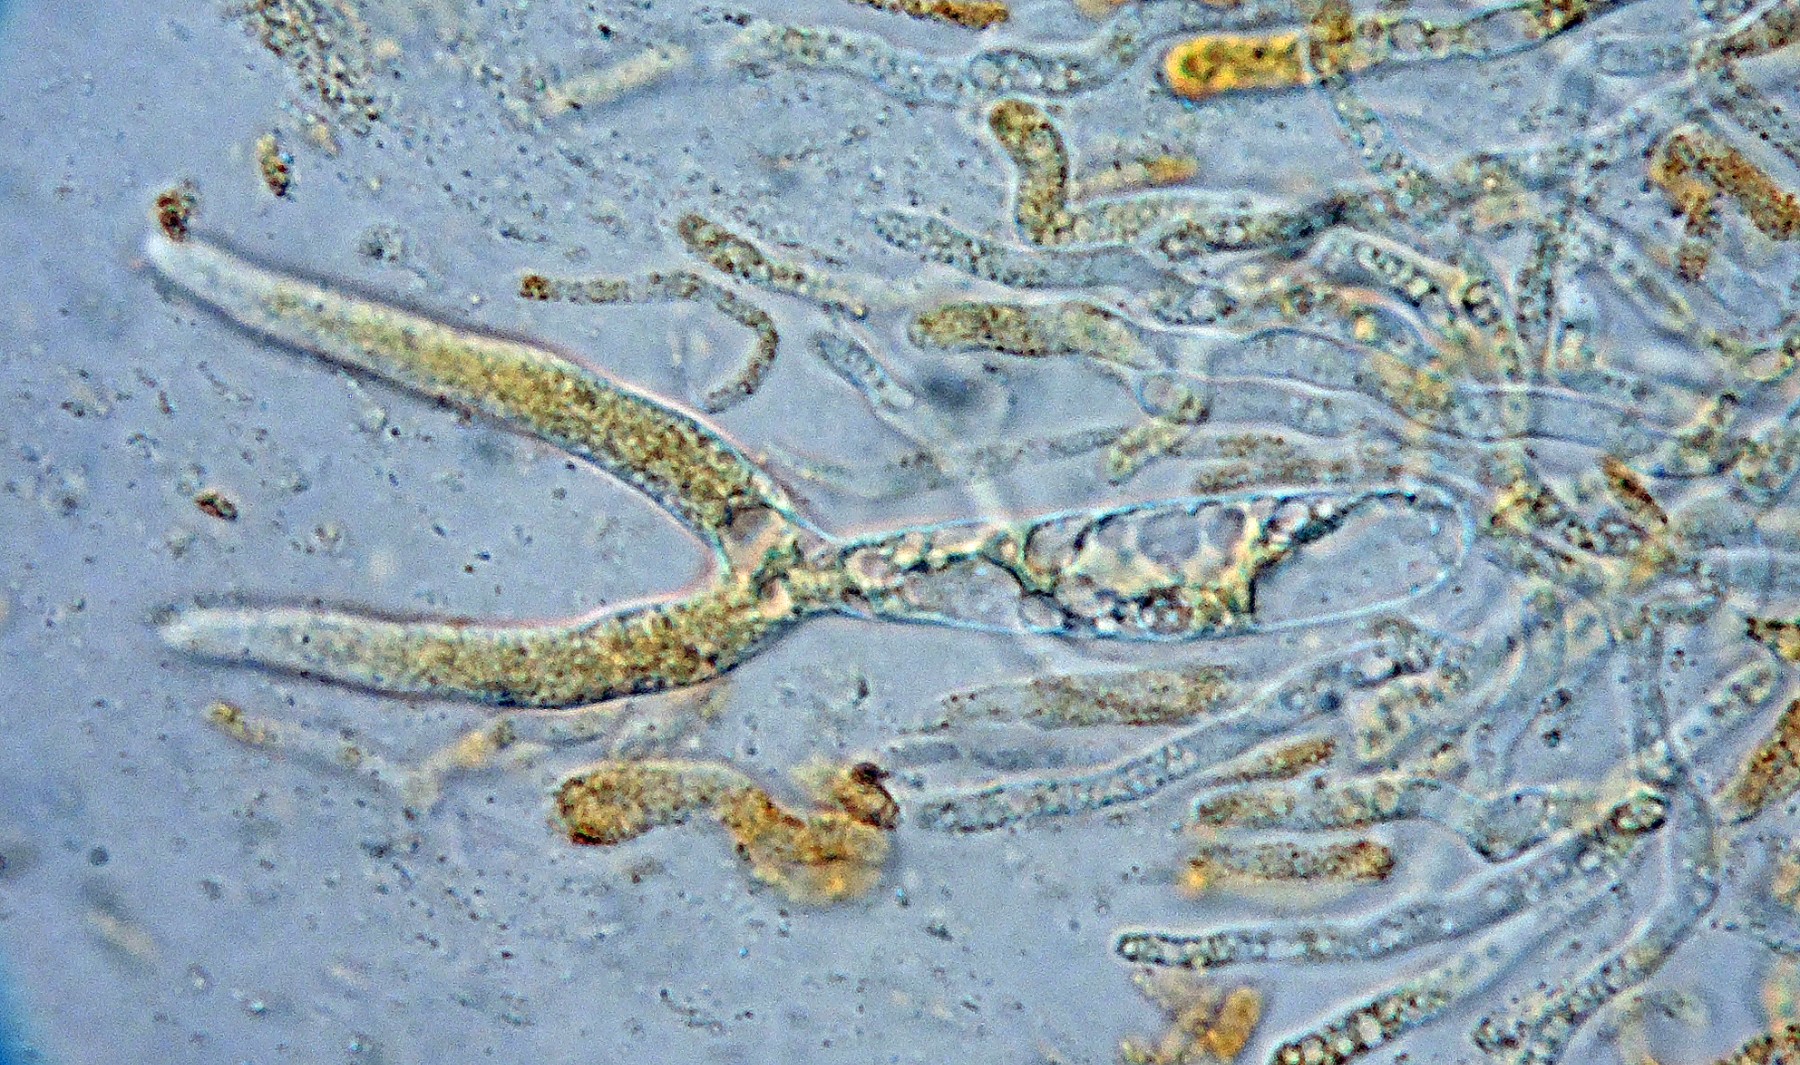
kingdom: Fungi
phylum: Basidiomycota
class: Dacrymycetes
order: Dacrymycetales
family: Dacrymycetaceae
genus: Dacrymyces
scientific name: Dacrymyces ovisporus
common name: ægsporet tåresvamp
